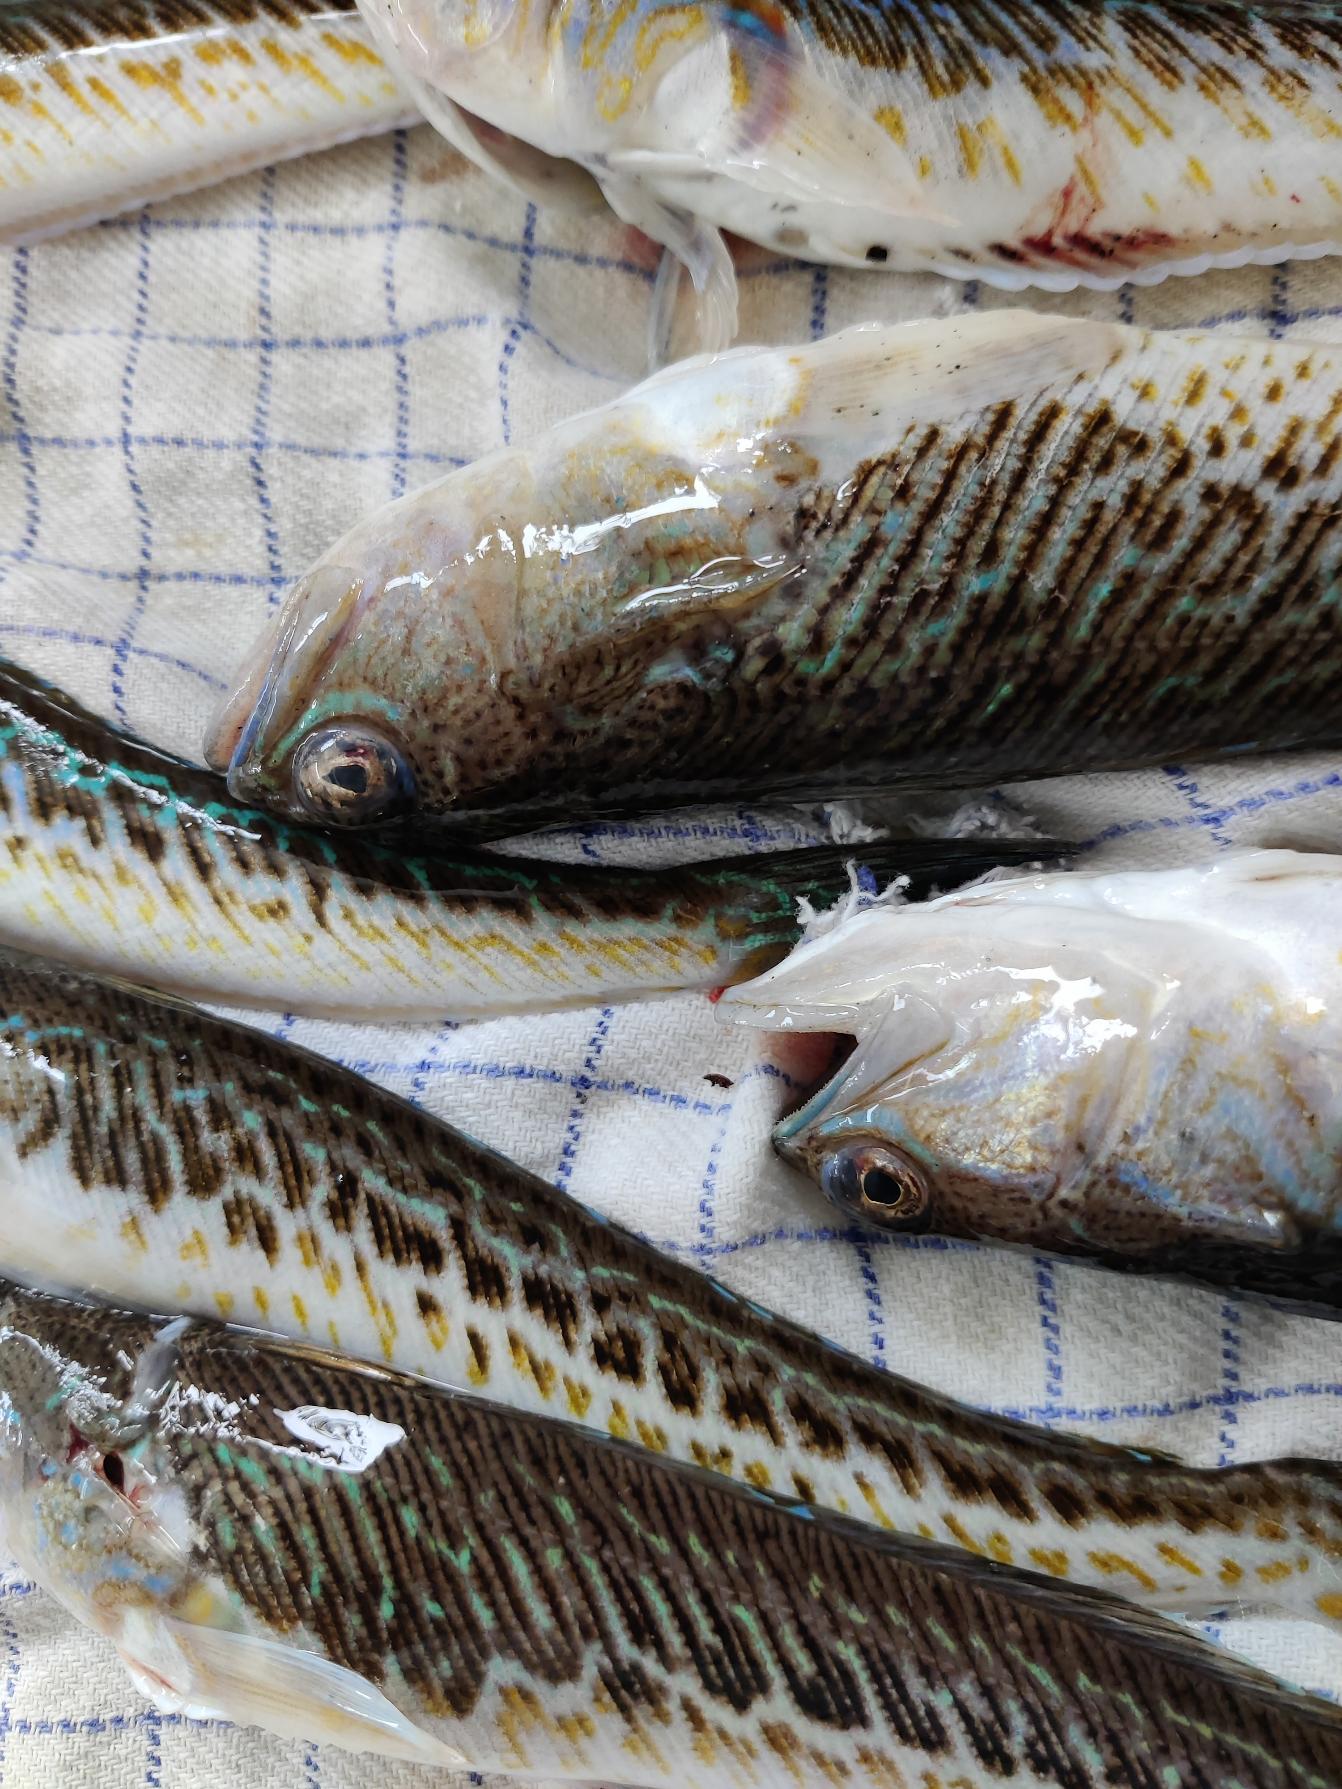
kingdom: Animalia
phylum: Chordata
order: Perciformes
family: Trachinidae
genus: Trachinus
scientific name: Trachinus draco
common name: Almindelig fjæsing
